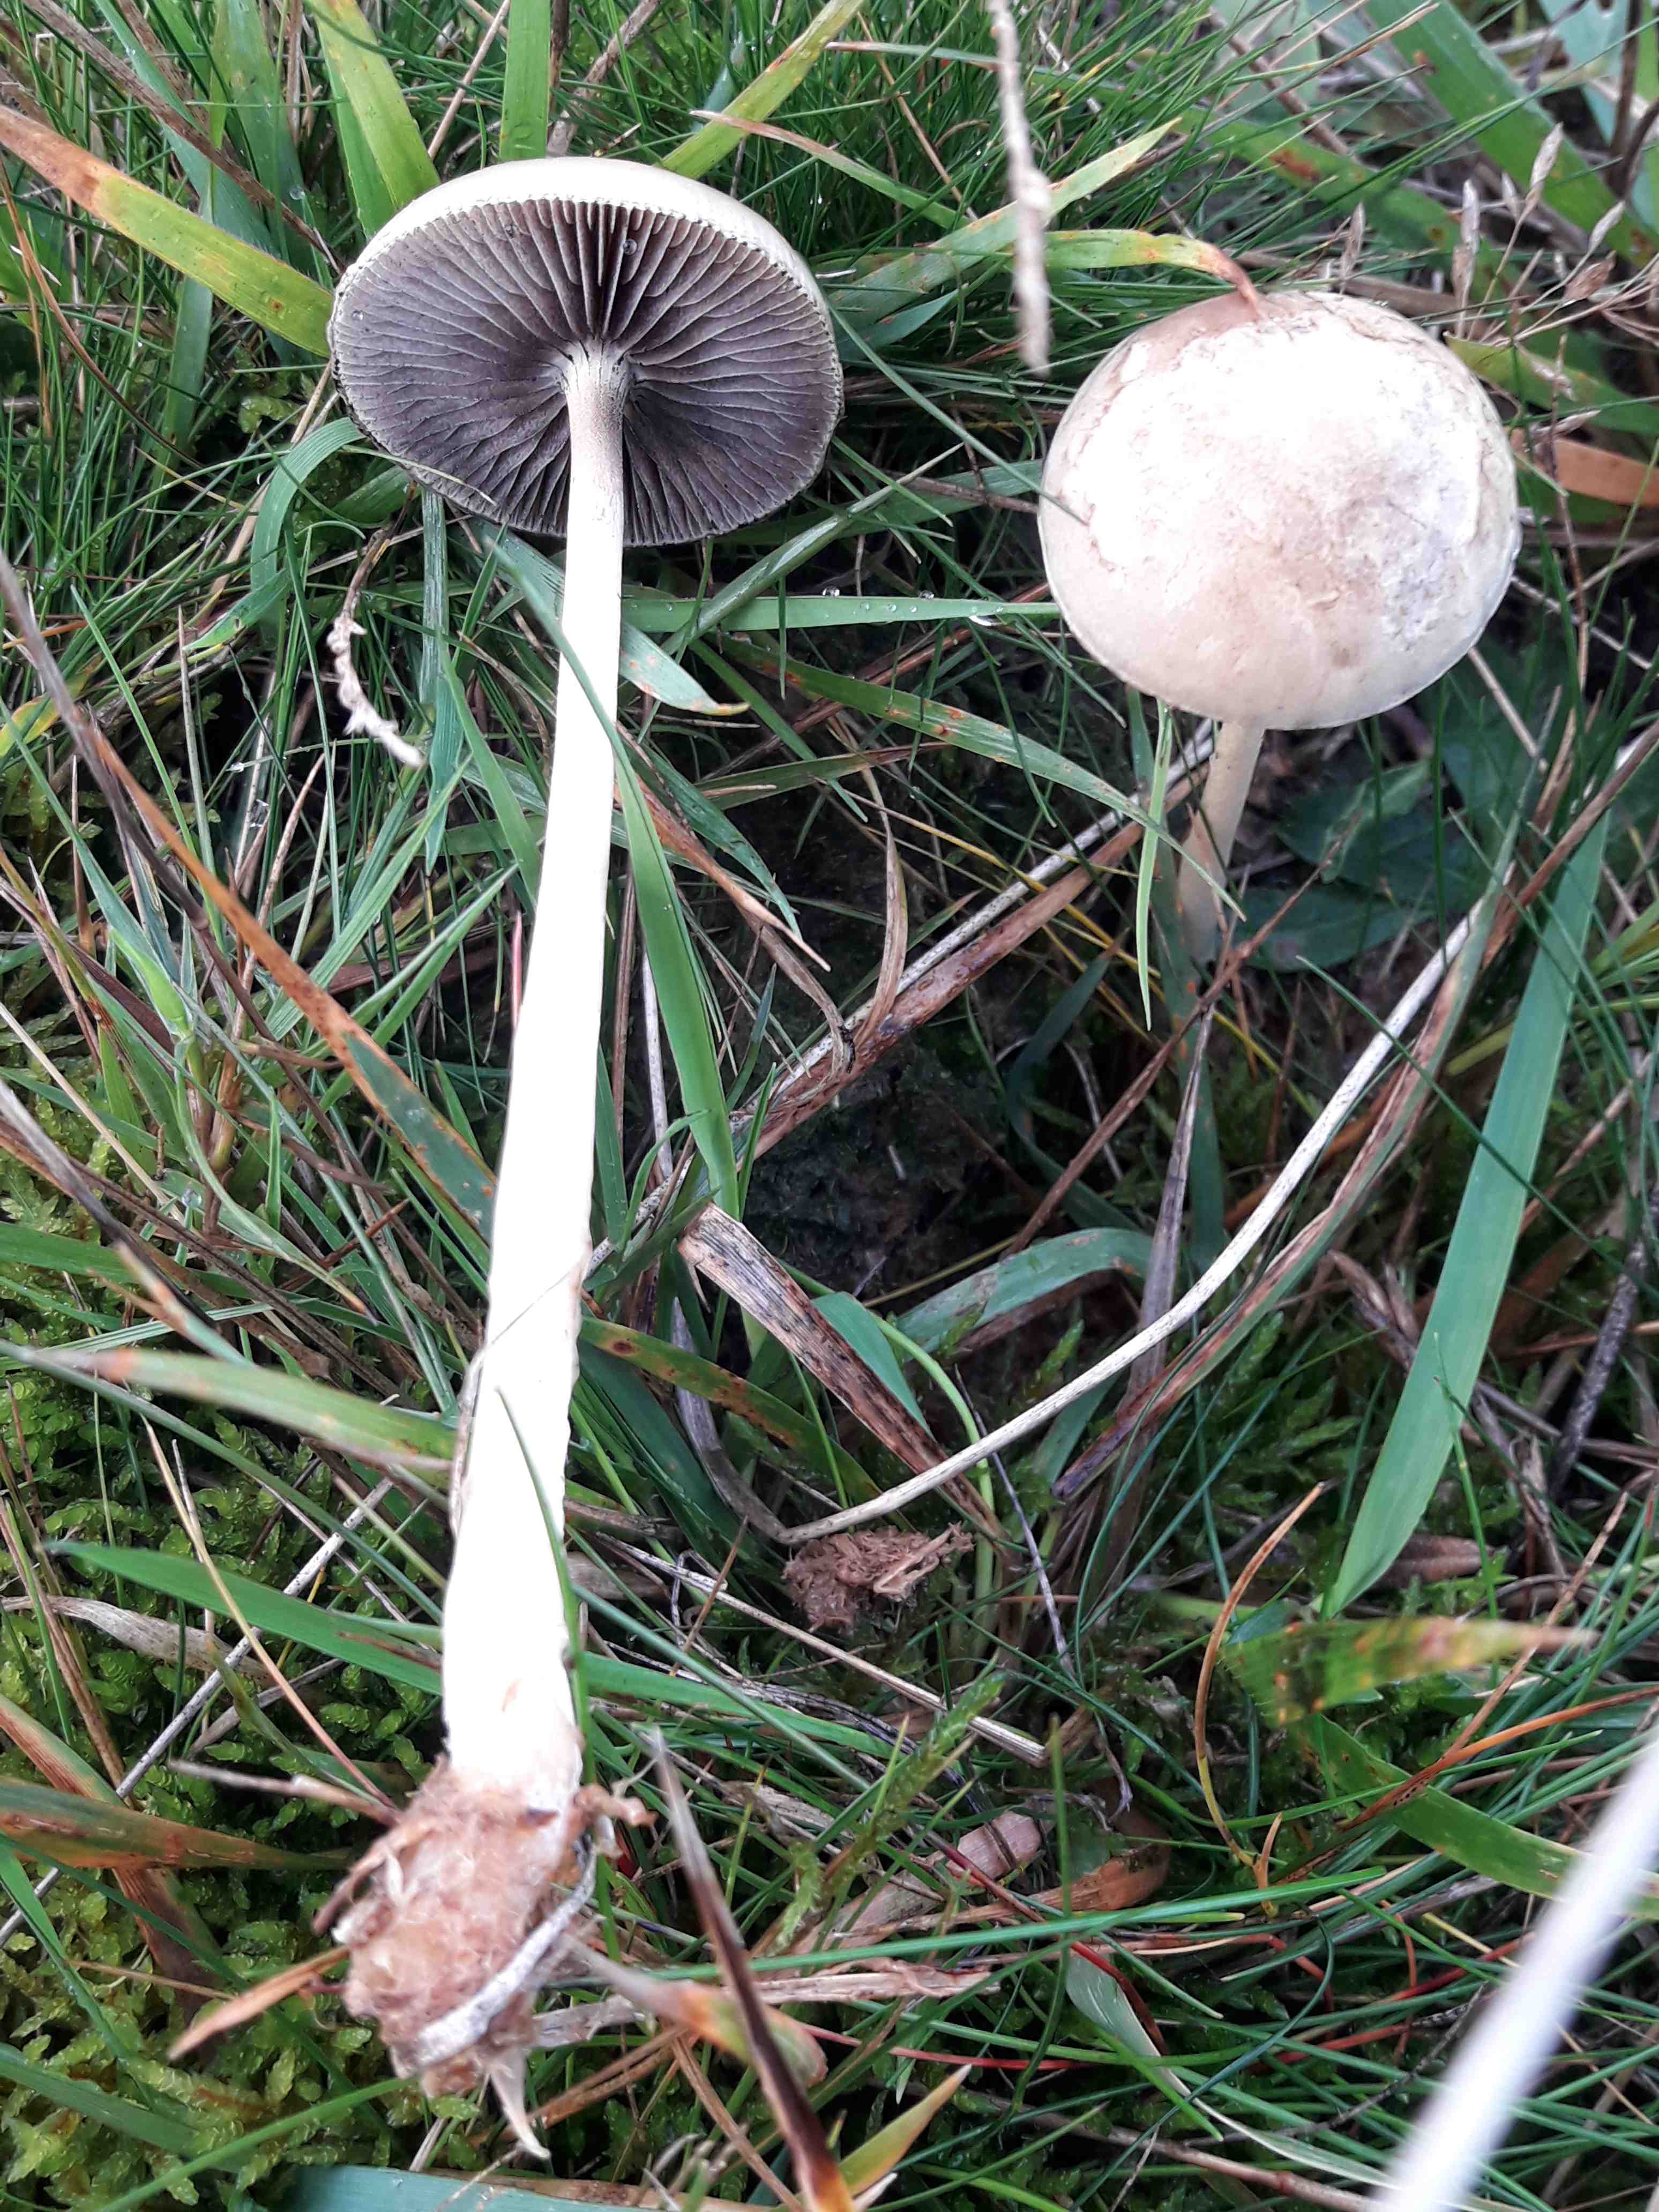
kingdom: Fungi
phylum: Basidiomycota
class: Agaricomycetes
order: Agaricales
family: Strophariaceae
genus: Protostropharia
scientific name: Protostropharia semiglobata
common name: halvkugleformet bredblad
